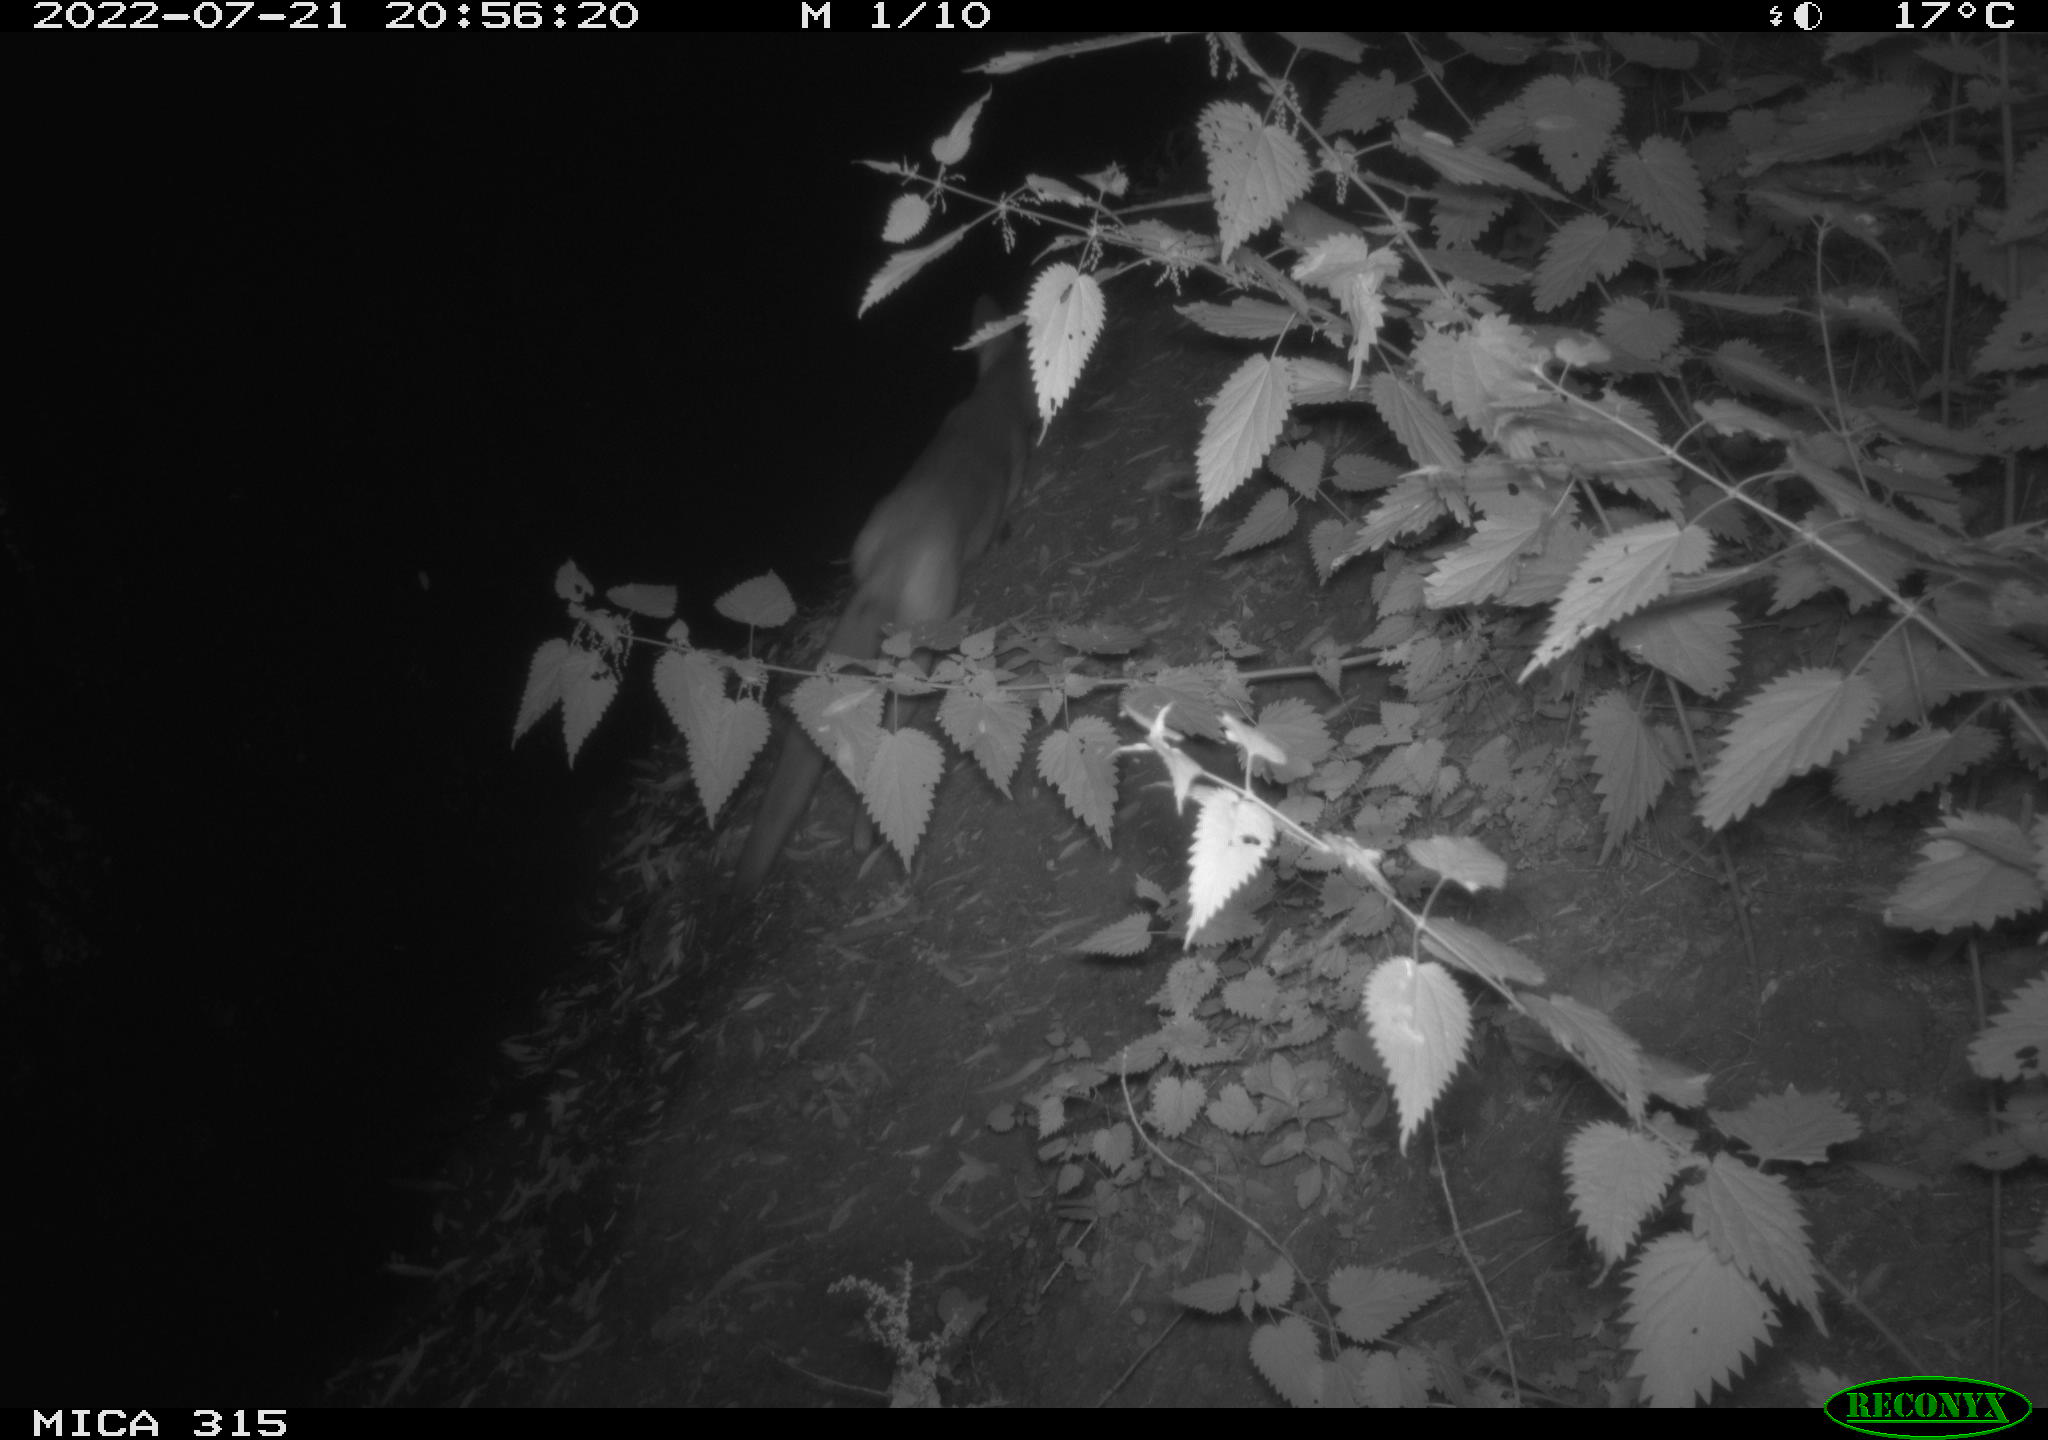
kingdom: Animalia
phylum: Chordata
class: Mammalia
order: Carnivora
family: Canidae
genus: Vulpes
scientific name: Vulpes vulpes
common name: Red fox
